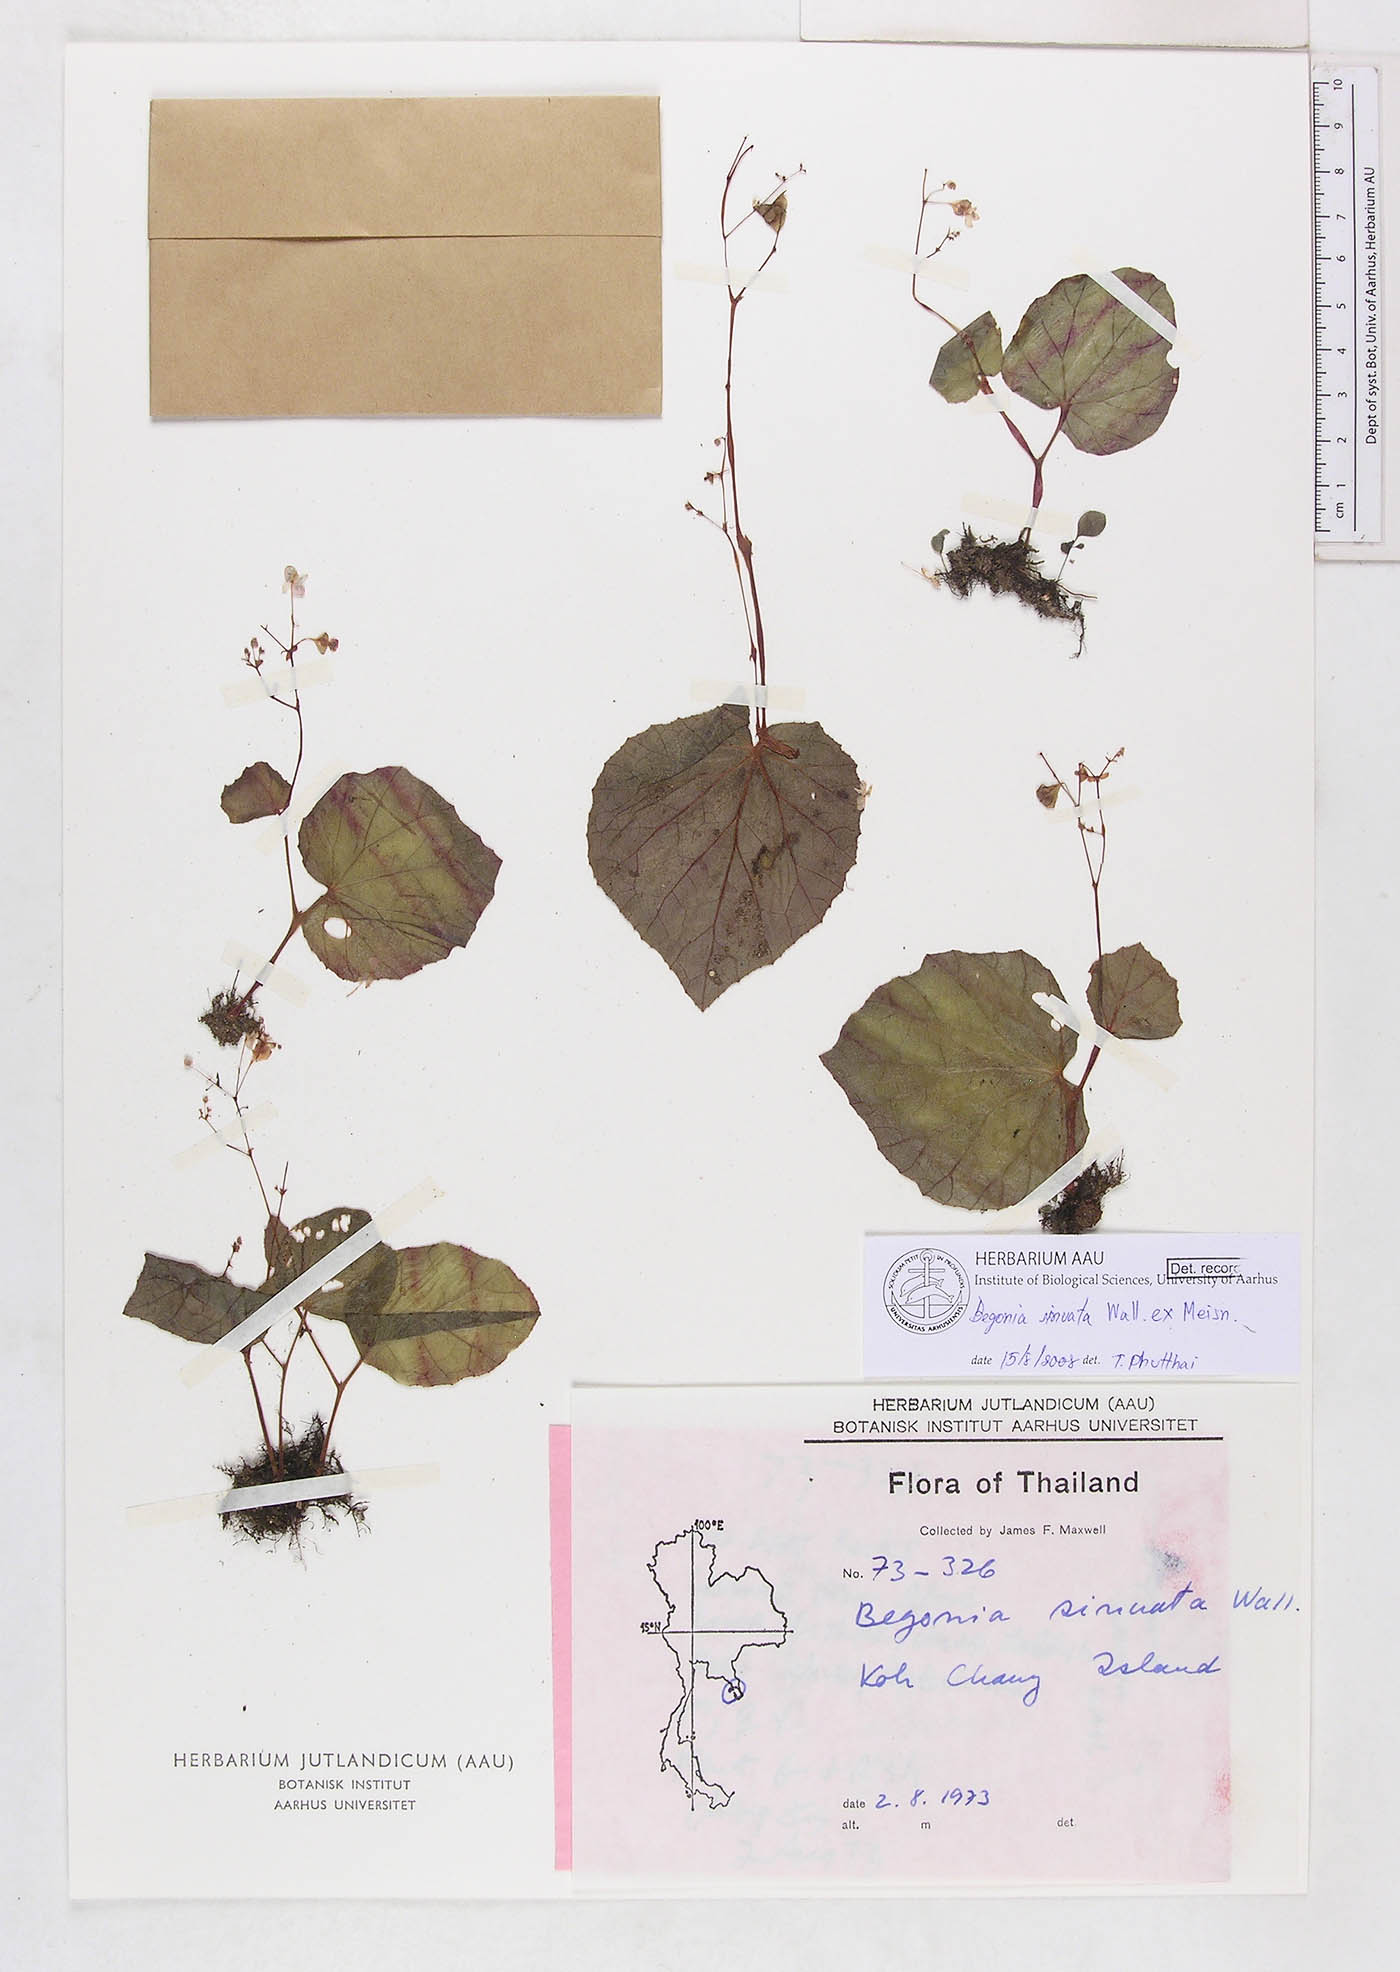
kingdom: Plantae
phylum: Tracheophyta
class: Magnoliopsida
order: Cucurbitales
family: Begoniaceae
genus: Begonia
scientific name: Begonia sinuata
